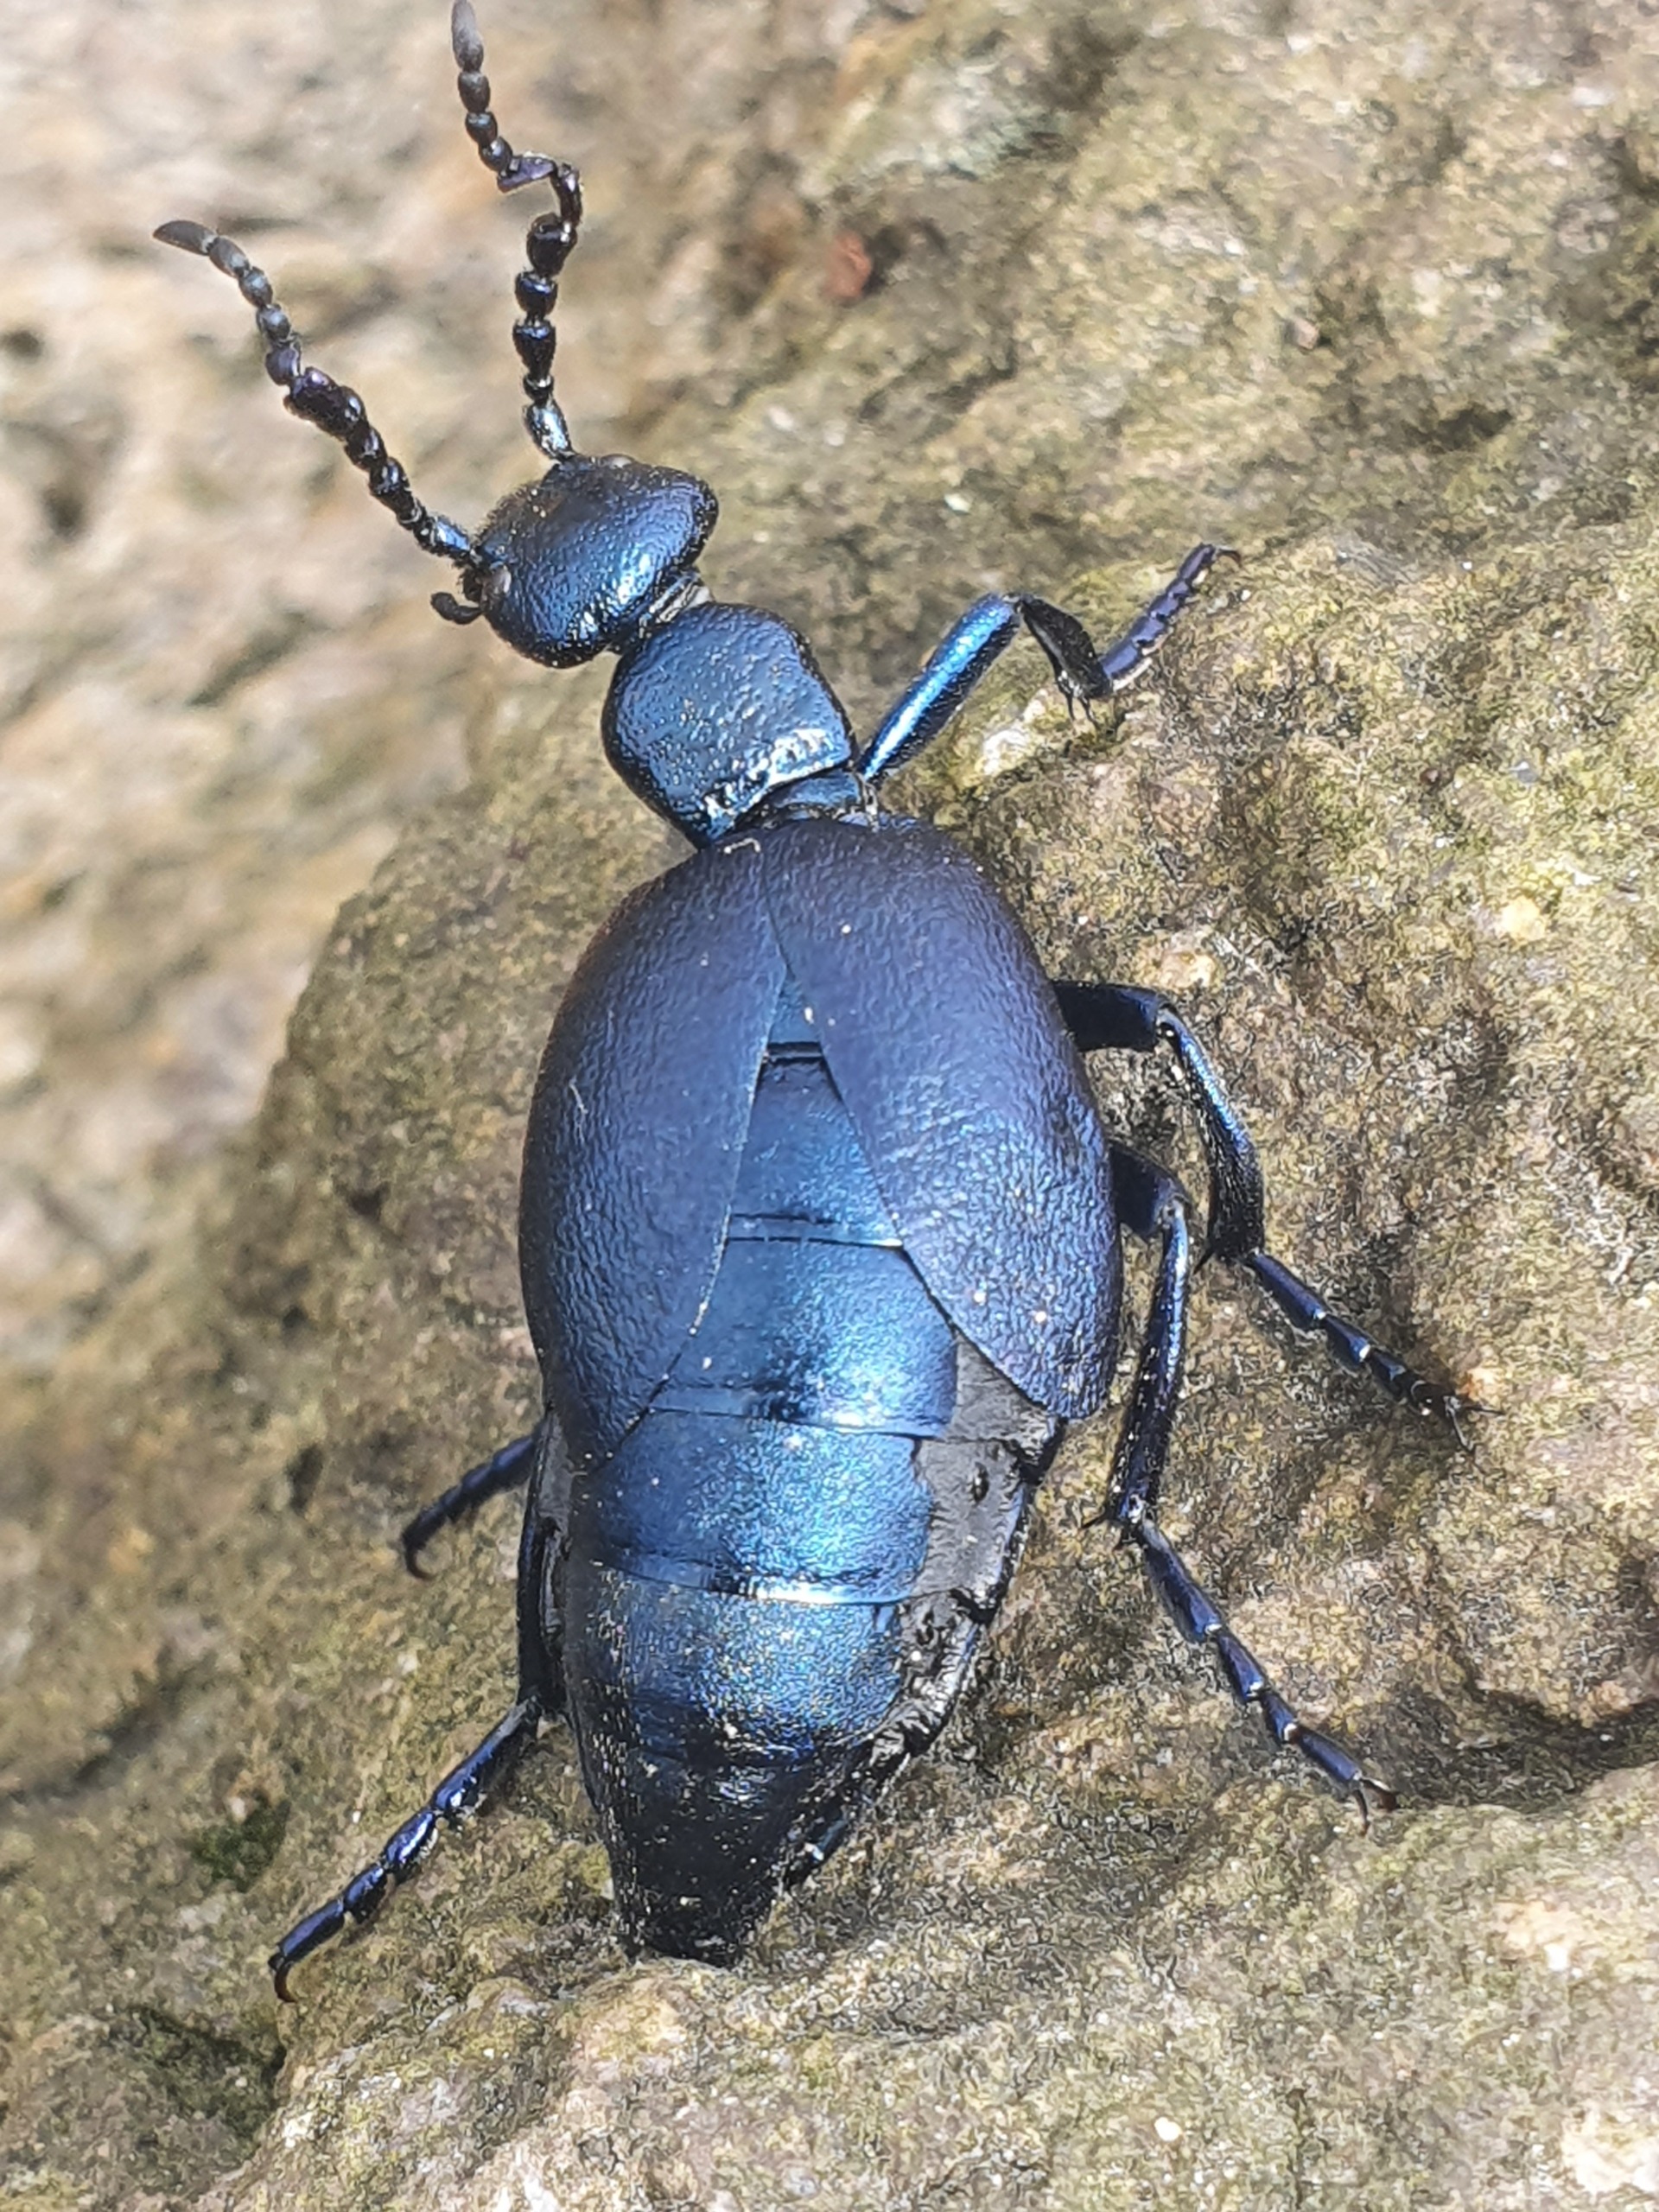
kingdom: Animalia
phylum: Arthropoda
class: Insecta
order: Coleoptera
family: Meloidae
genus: Meloe
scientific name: Meloe violaceus
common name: Blå oliebille
